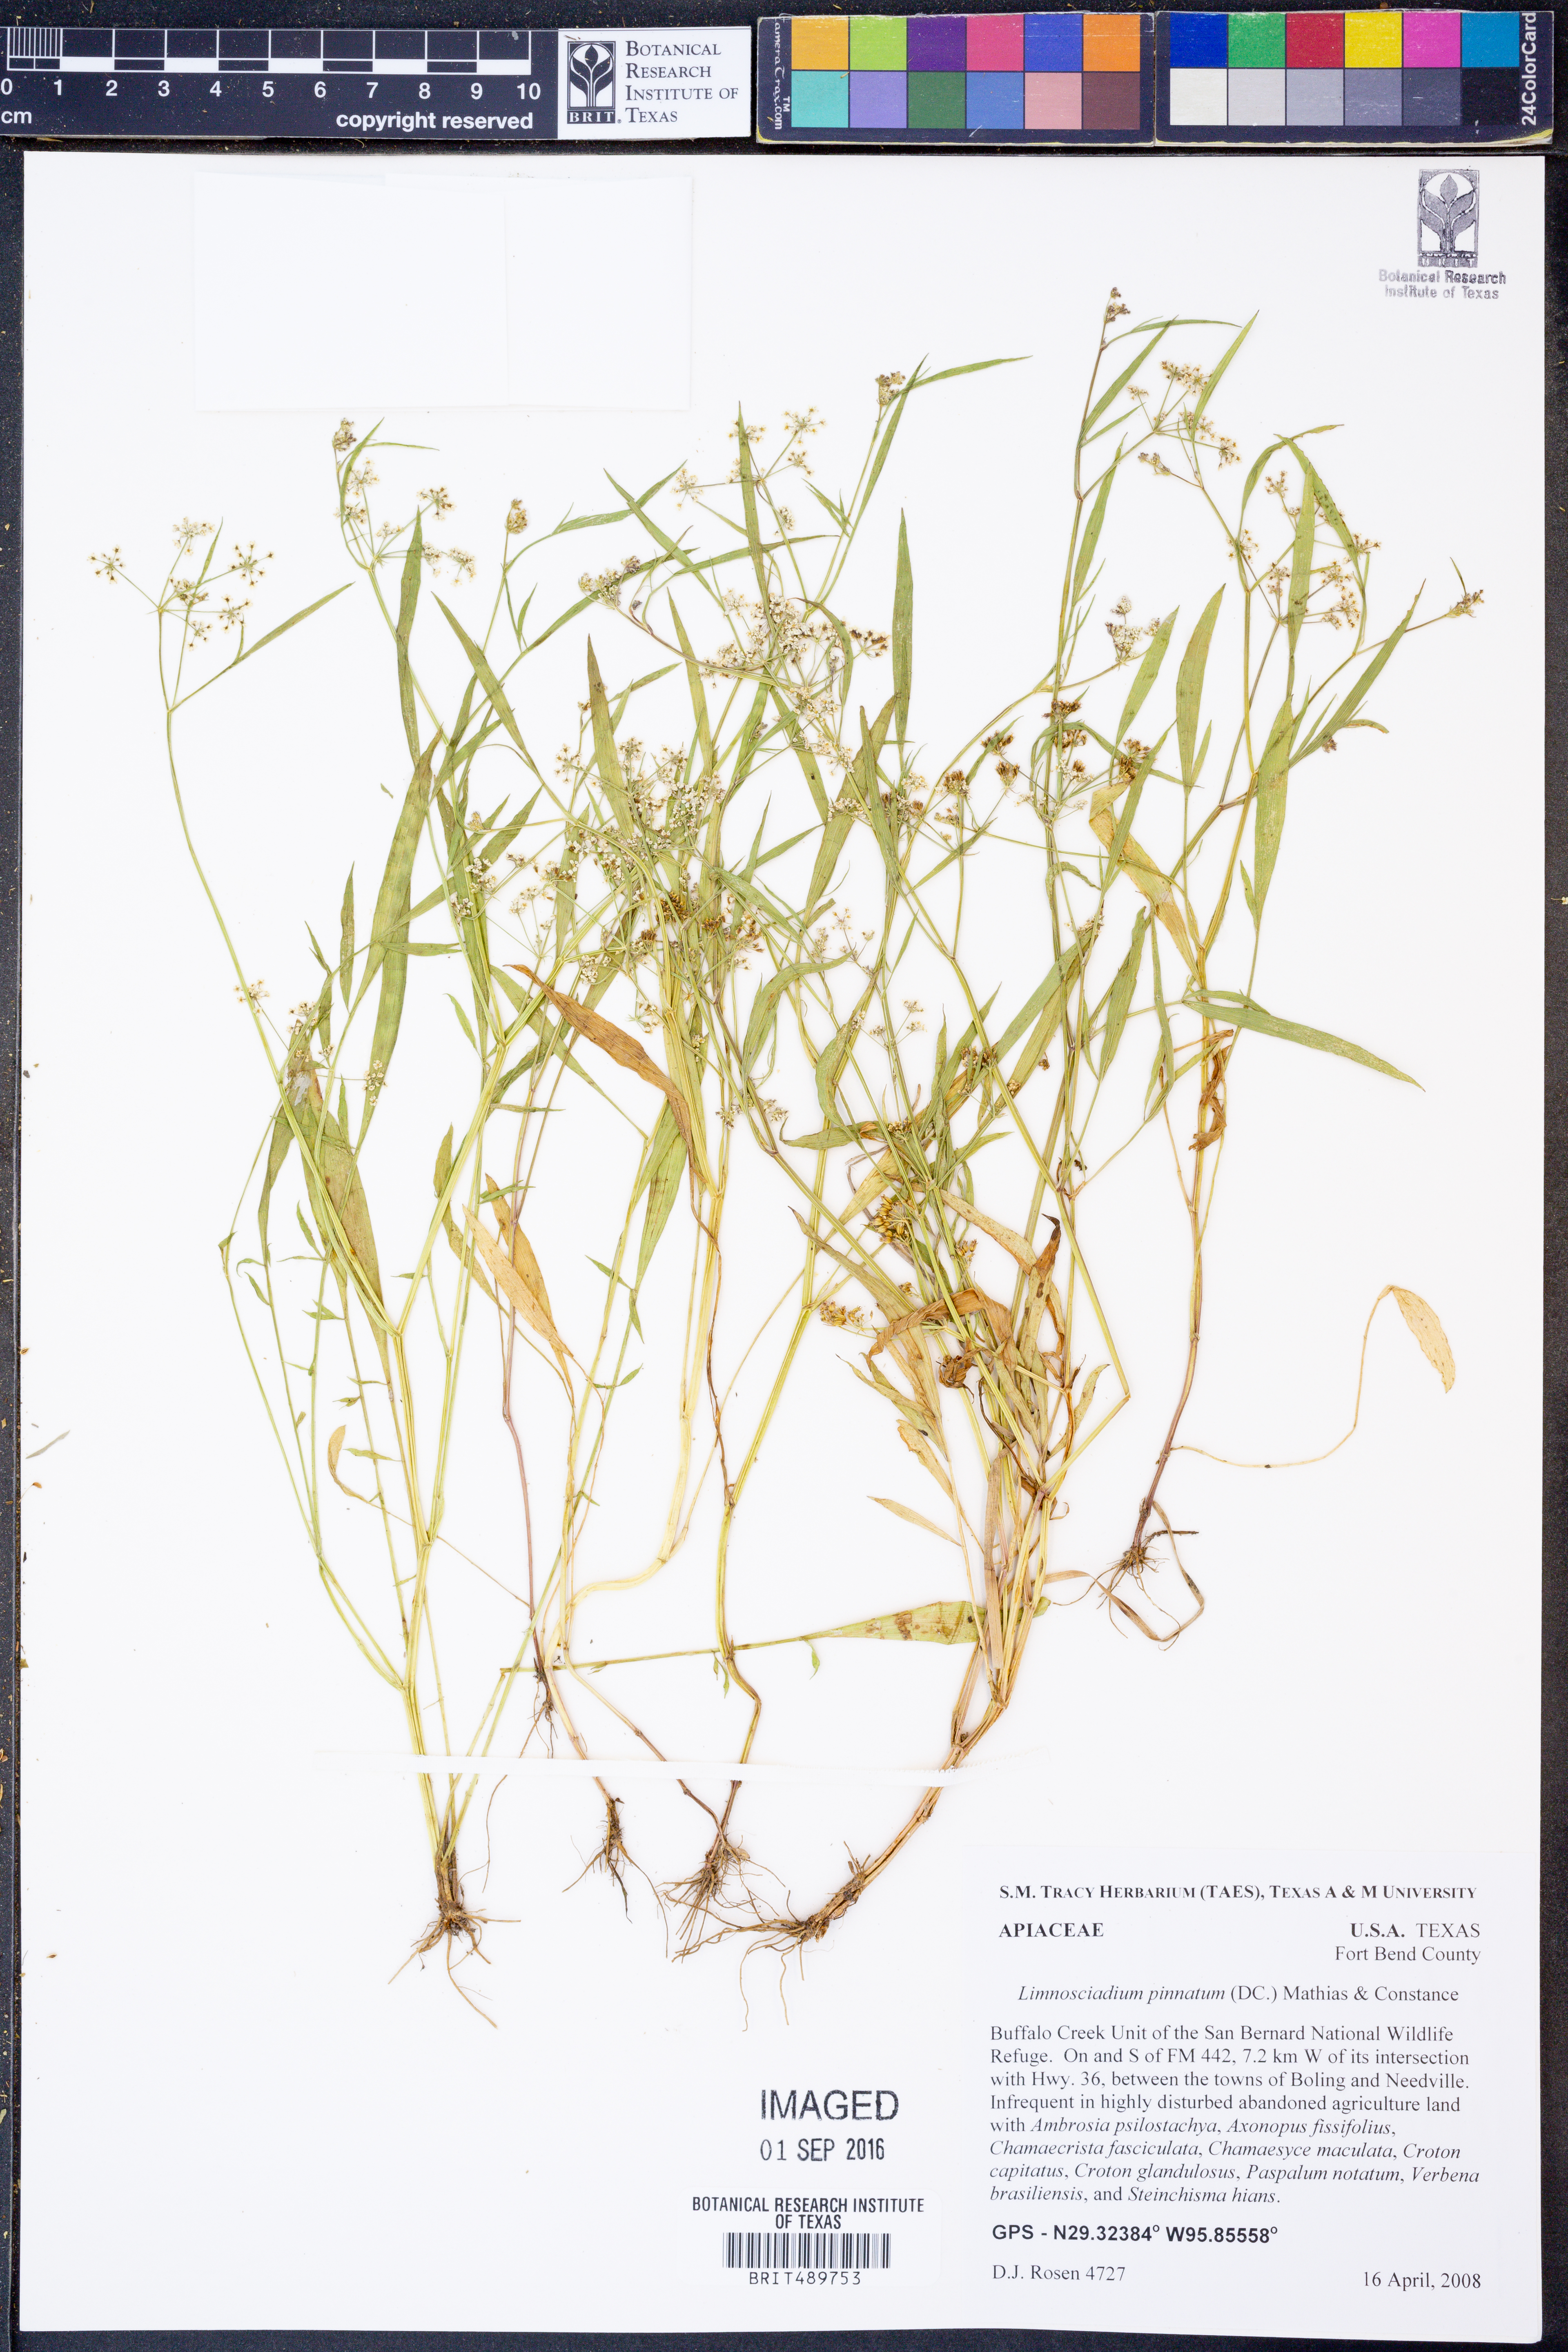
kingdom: Plantae
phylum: Tracheophyta
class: Magnoliopsida
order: Apiales
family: Apiaceae
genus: Limnosciadium
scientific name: Limnosciadium pinnatum
